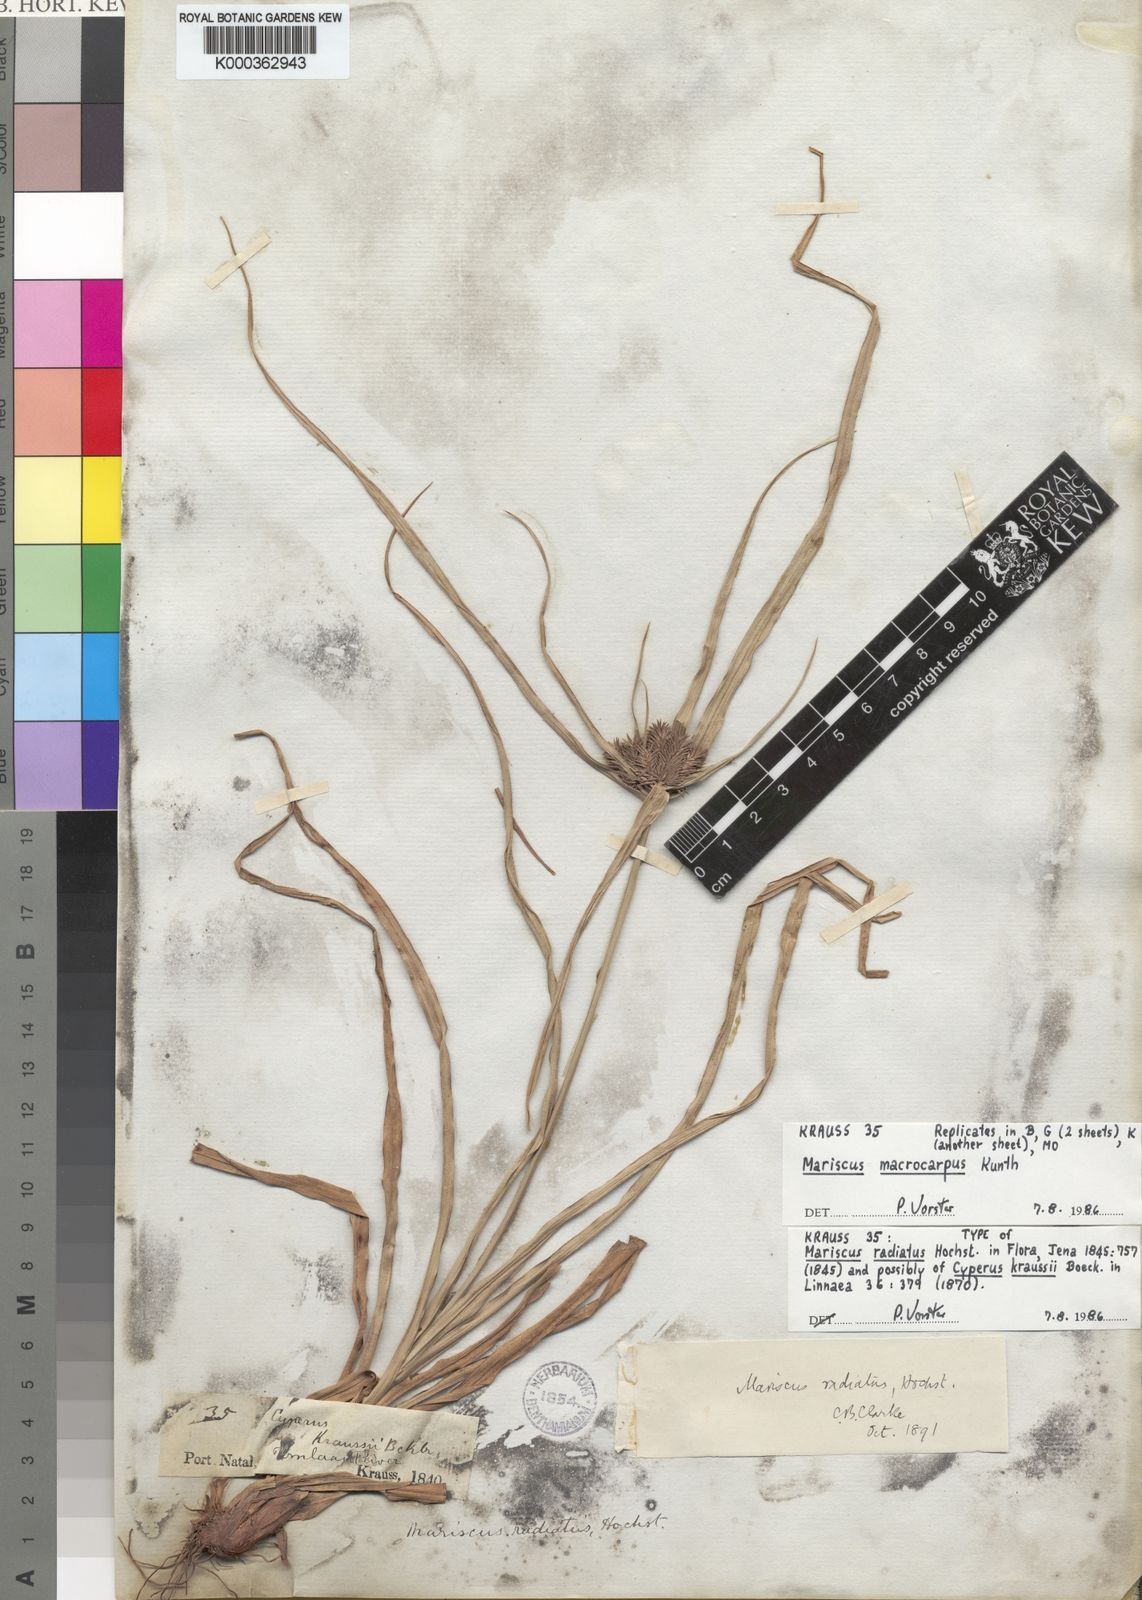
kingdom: Plantae
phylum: Tracheophyta
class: Liliopsida
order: Poales
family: Cyperaceae
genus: Cyperus
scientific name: Cyperus
